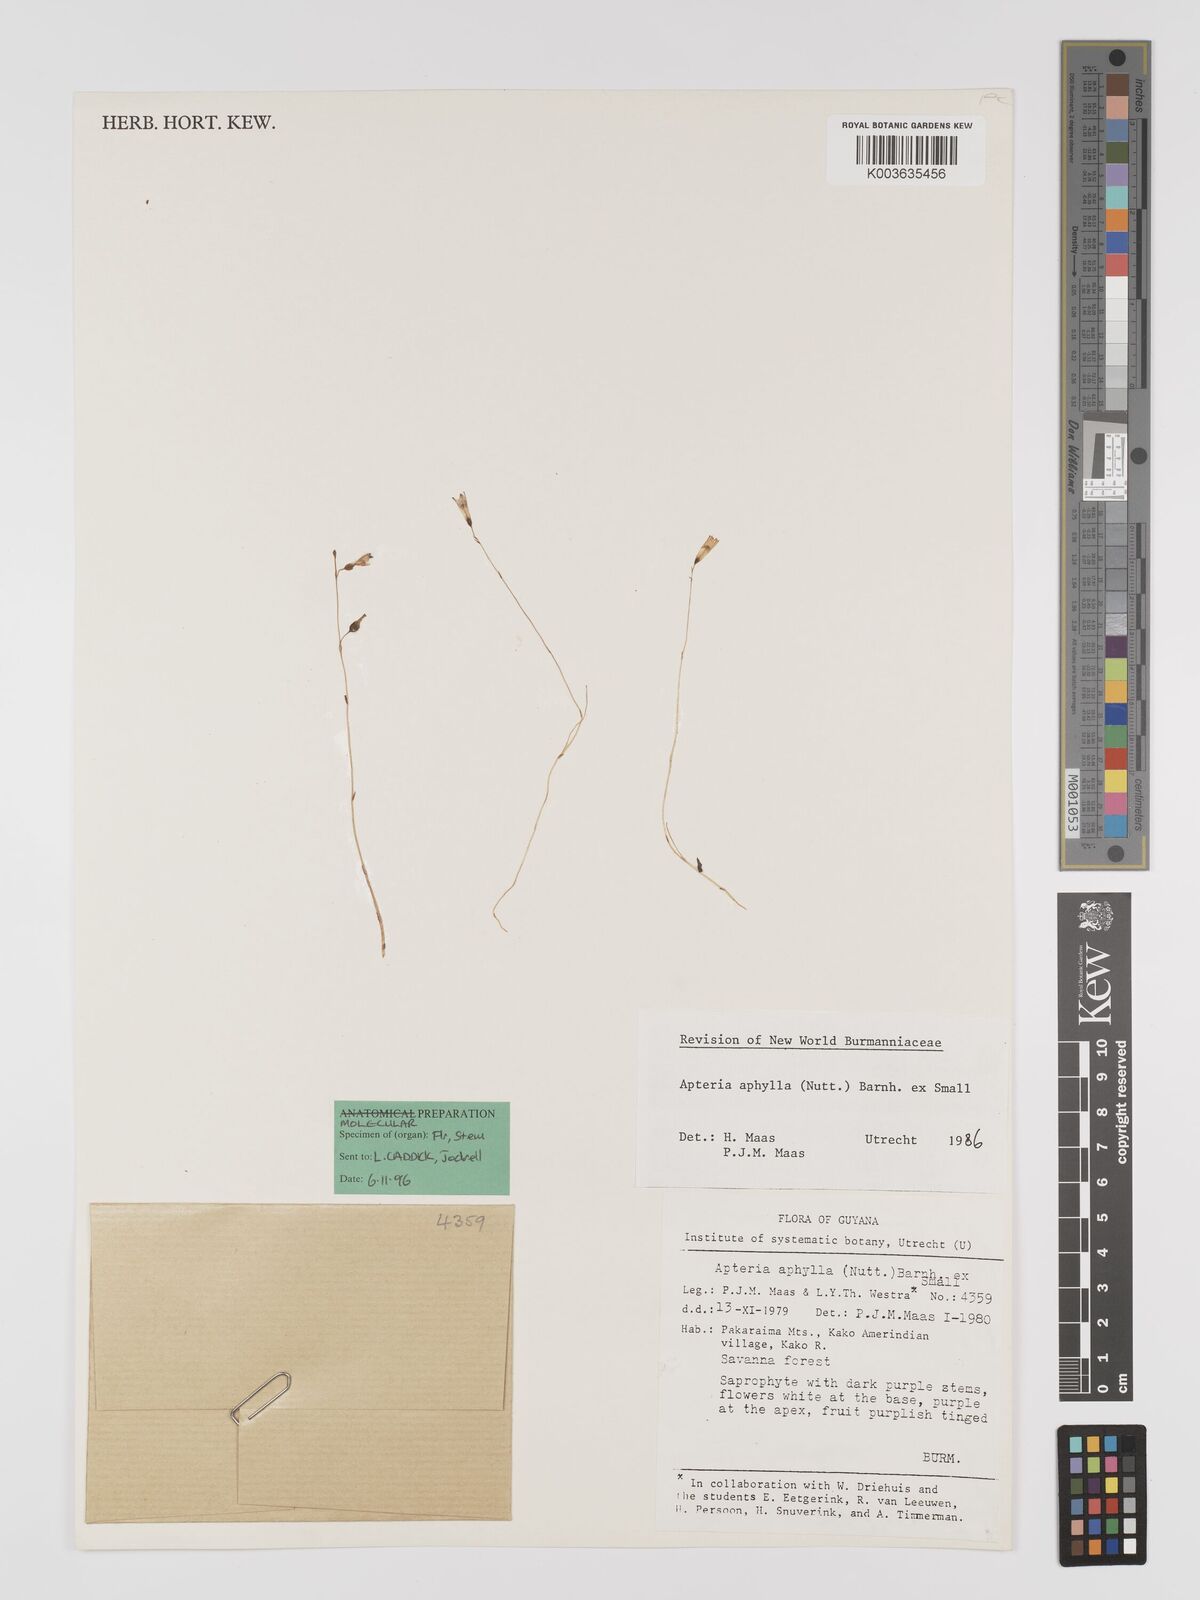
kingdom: Plantae
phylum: Tracheophyta
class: Liliopsida
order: Dioscoreales
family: Burmanniaceae
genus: Apteria
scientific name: Apteria aphylla
